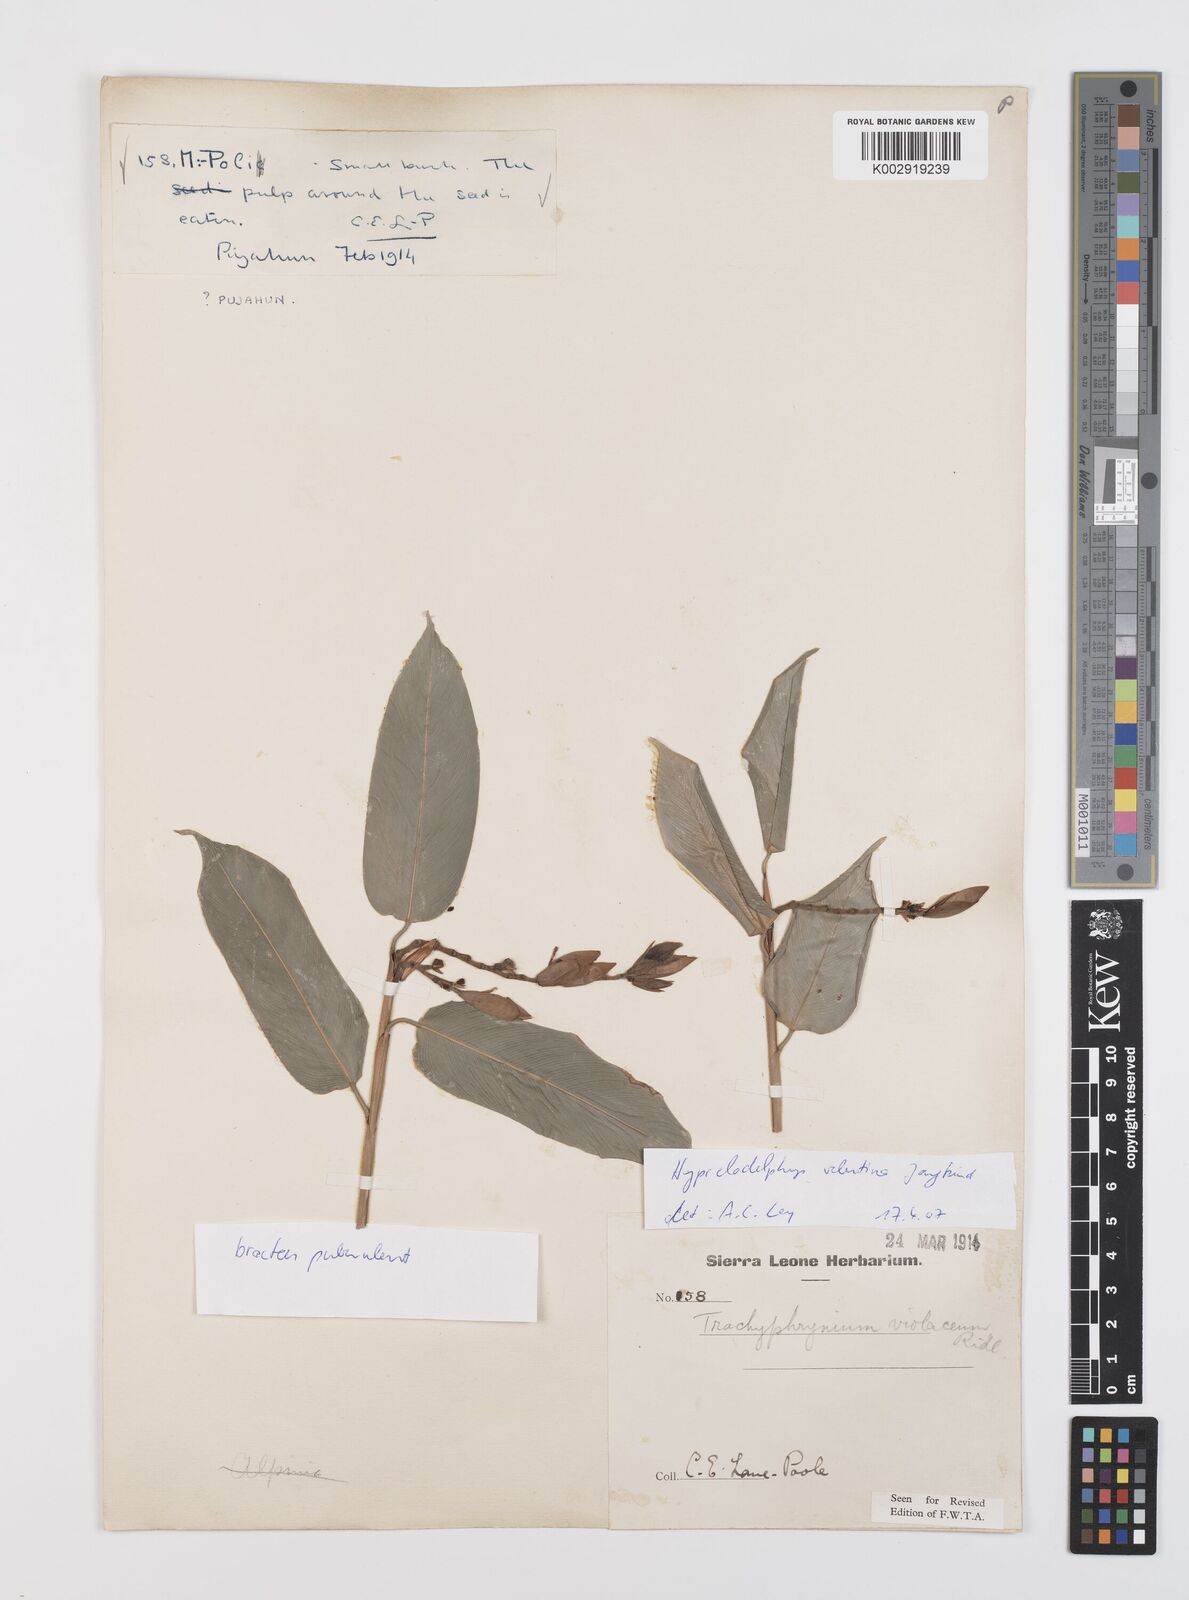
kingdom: Plantae
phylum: Tracheophyta
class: Liliopsida
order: Zingiberales
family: Marantaceae
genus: Hypselodelphys
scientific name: Hypselodelphys velutina
